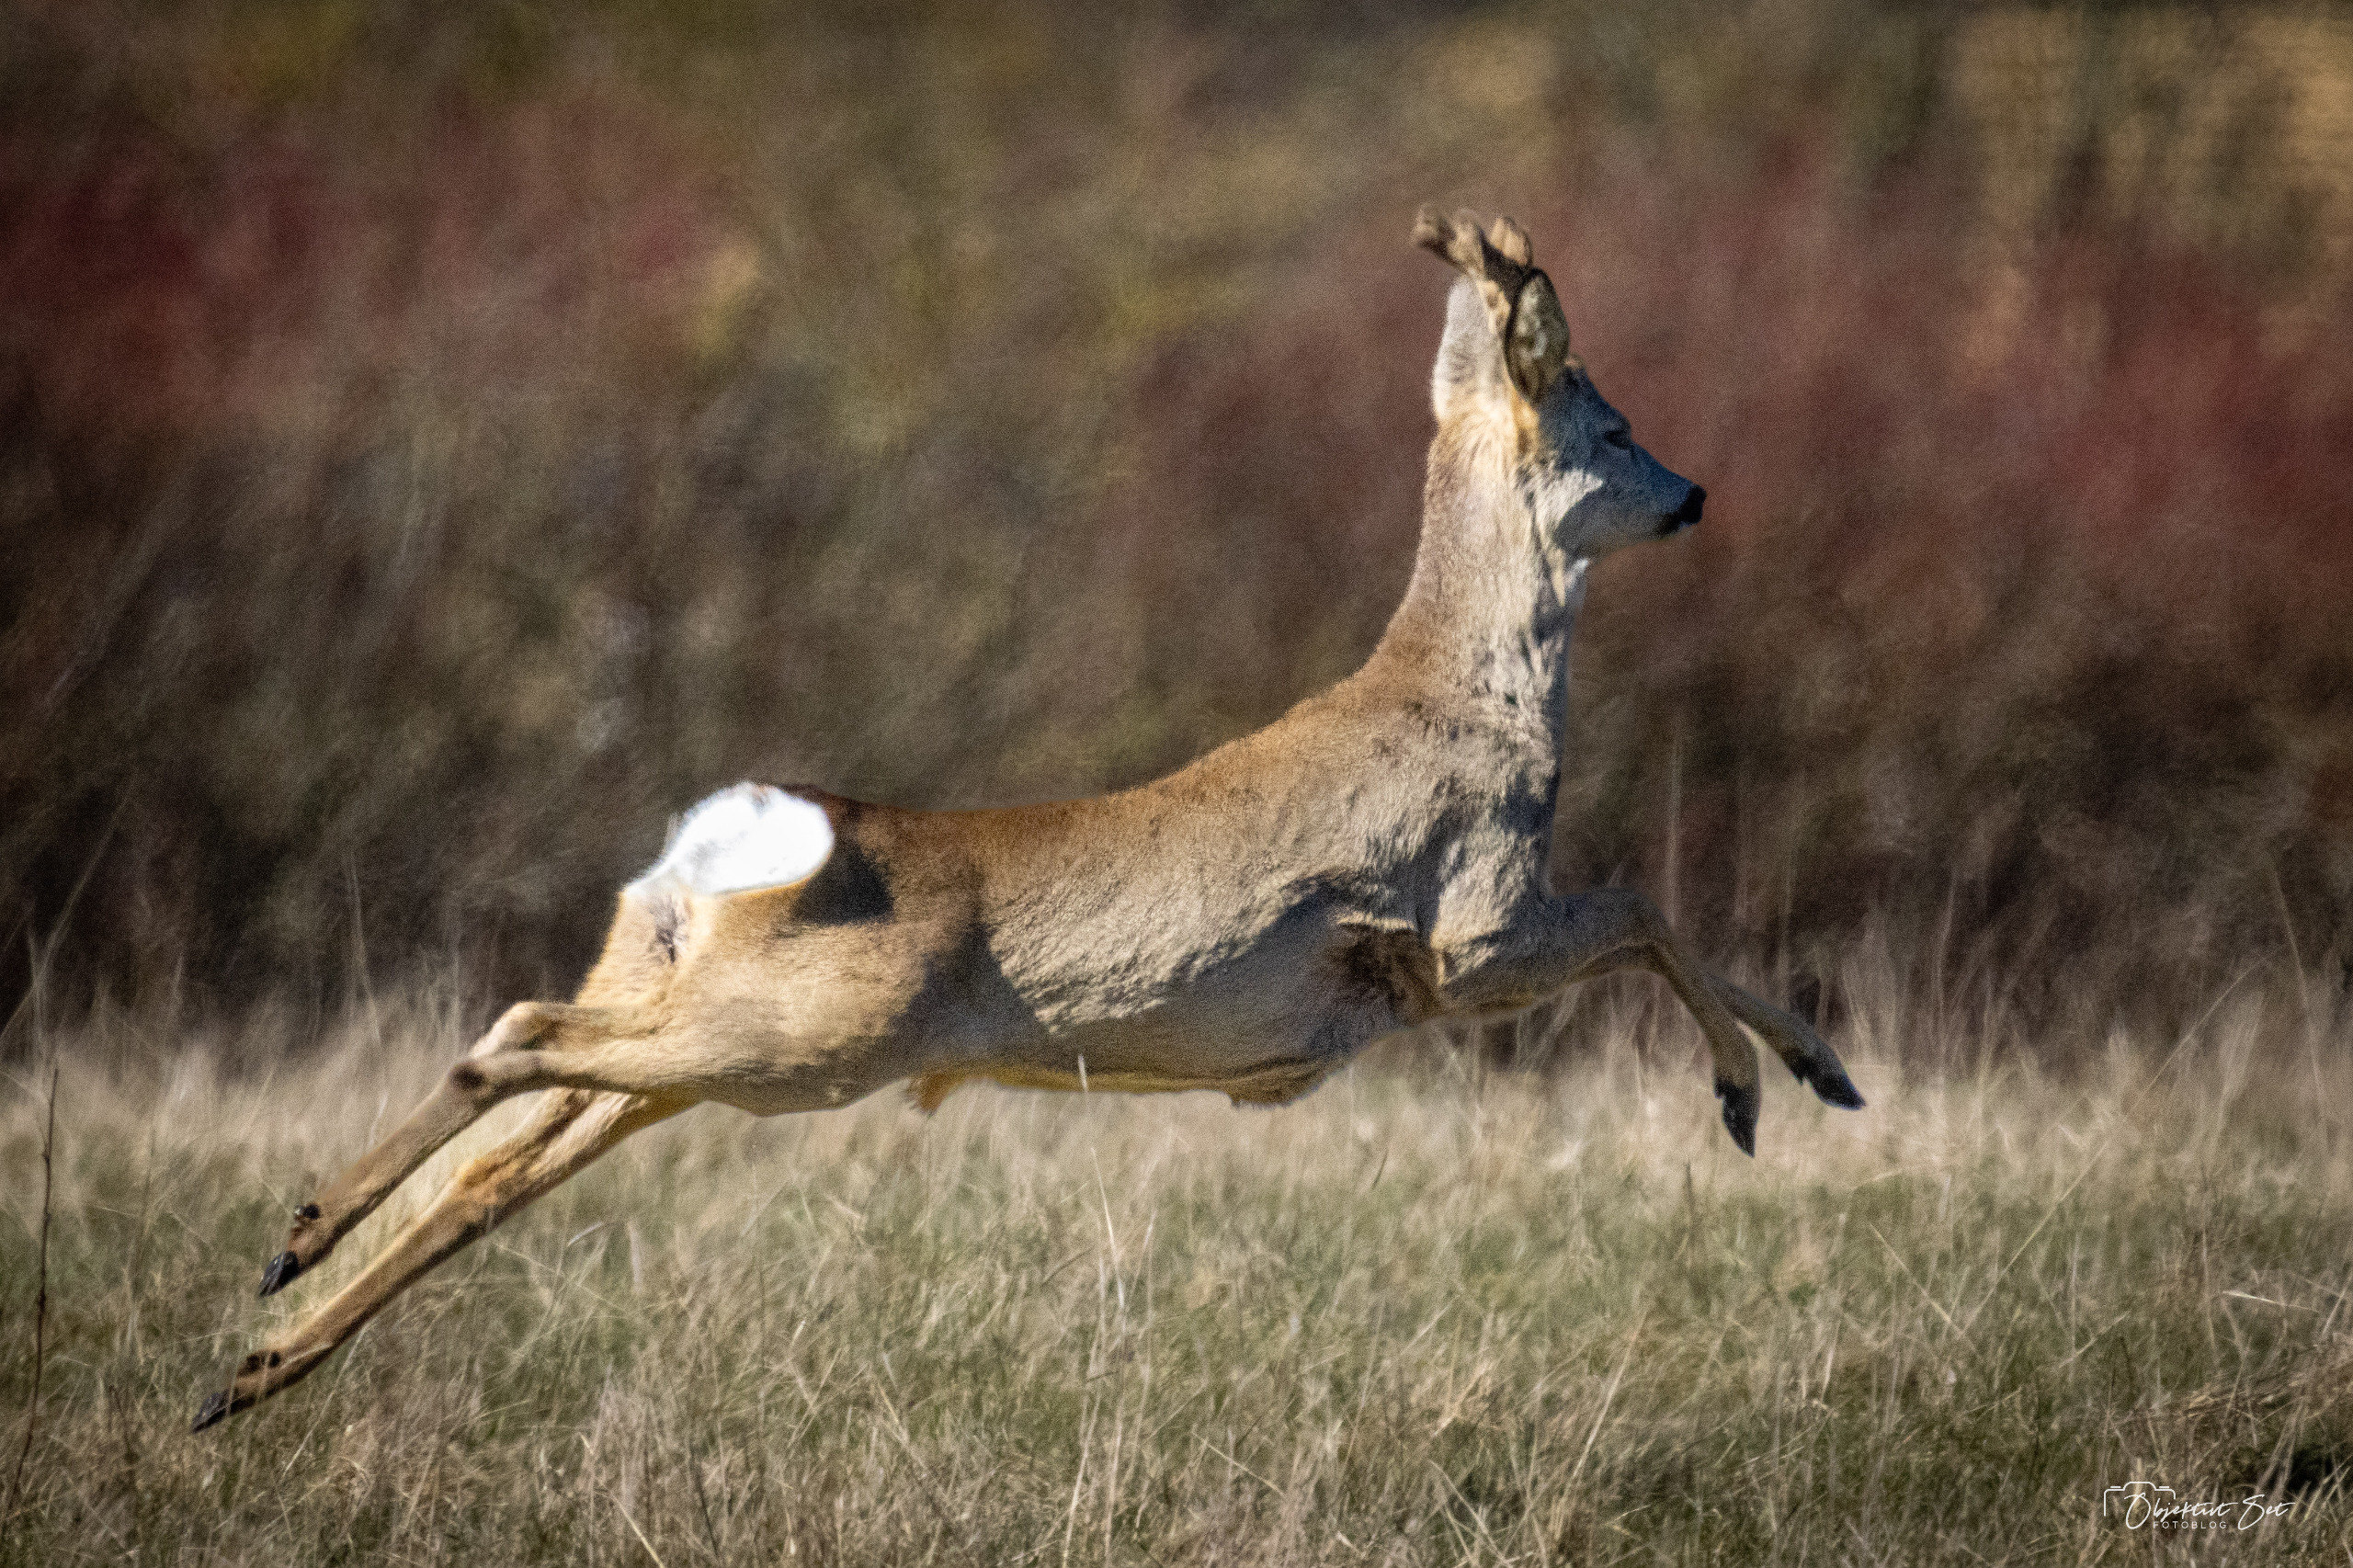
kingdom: Animalia
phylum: Chordata
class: Mammalia
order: Artiodactyla
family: Cervidae
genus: Capreolus
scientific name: Capreolus capreolus
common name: Rådyr
